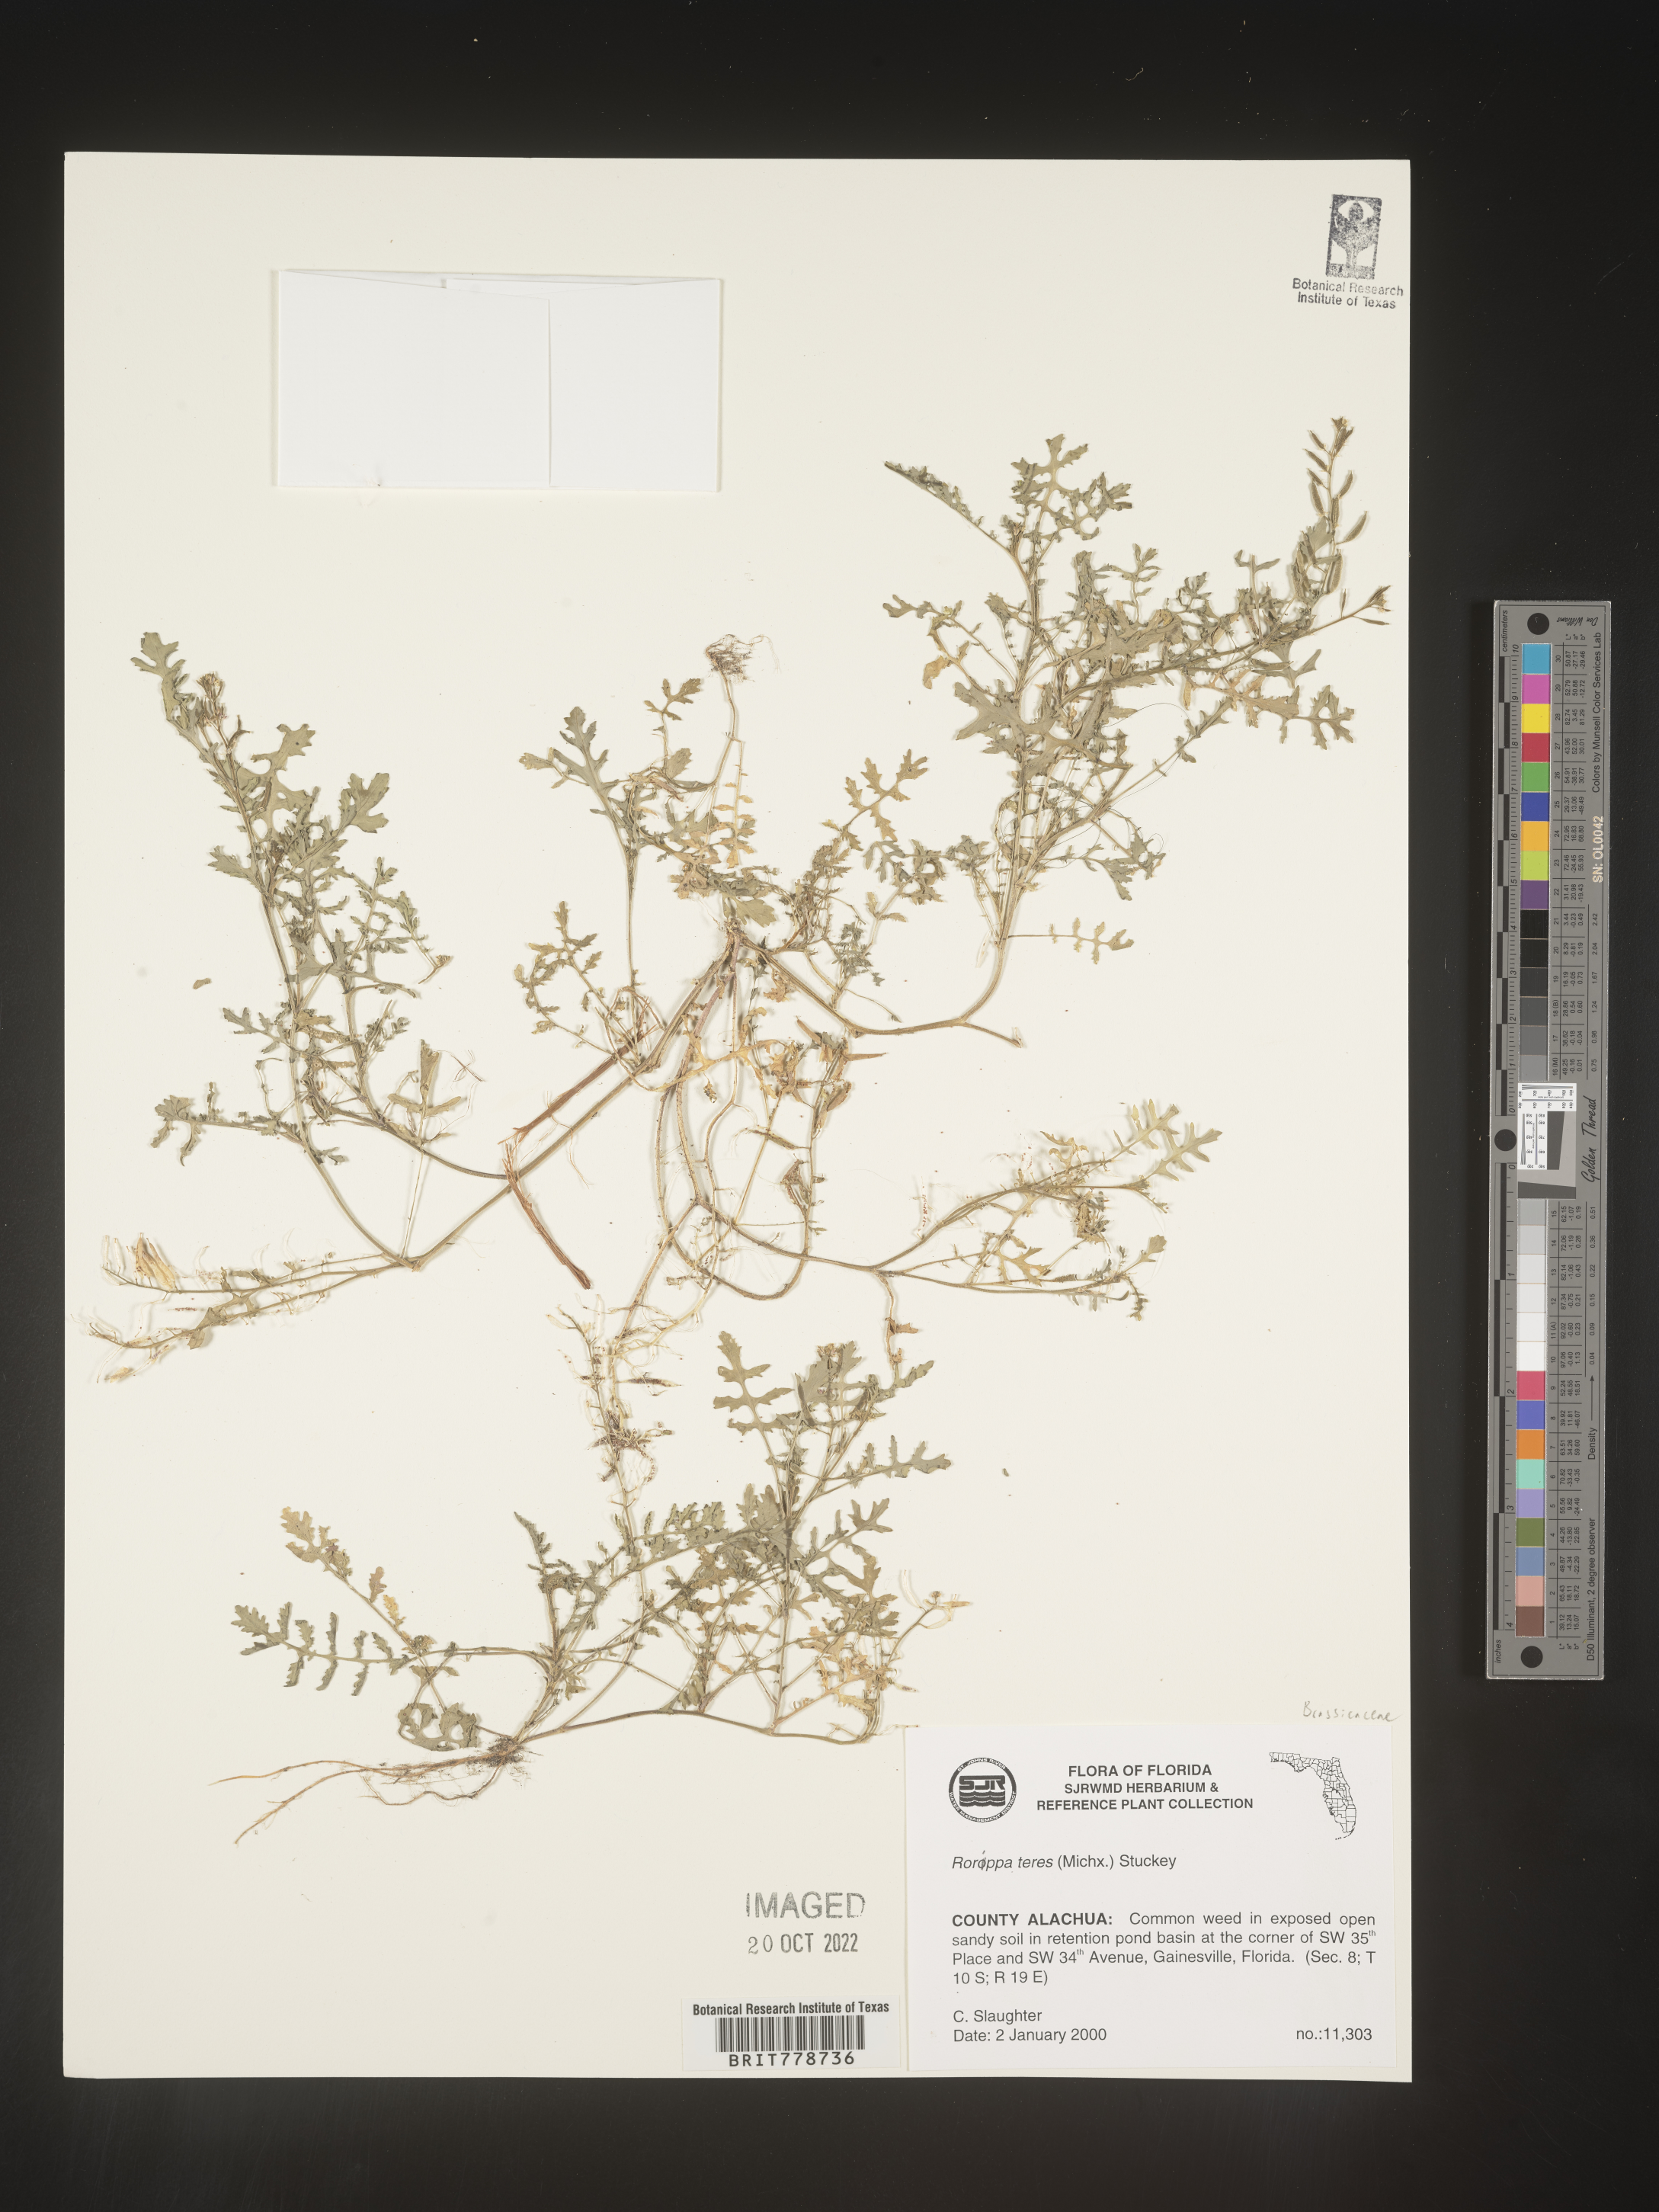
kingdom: Plantae
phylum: Tracheophyta
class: Magnoliopsida
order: Brassicales
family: Brassicaceae
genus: Rorippa
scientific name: Rorippa teres
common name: Southern marsh yellowcress
